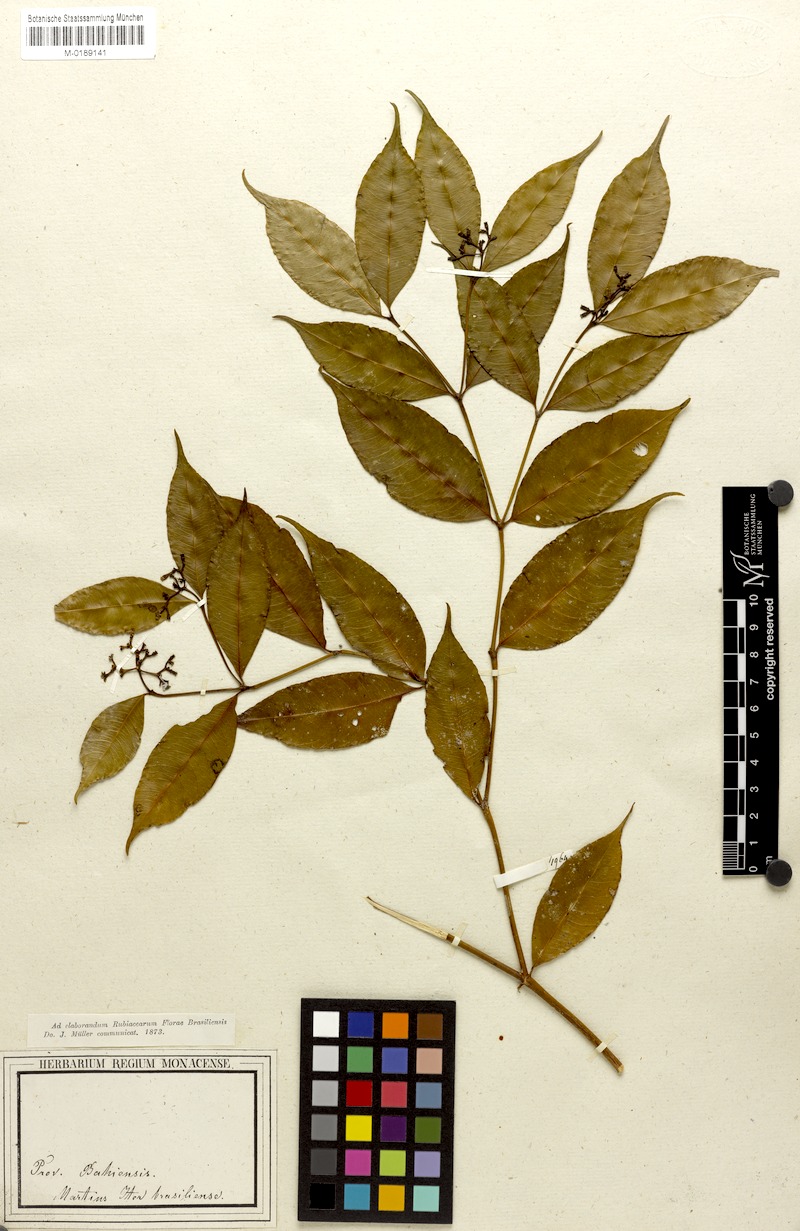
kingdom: Plantae
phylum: Tracheophyta
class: Magnoliopsida
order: Gentianales
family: Rubiaceae
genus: Psychotria
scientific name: Psychotria pentaphtosa
